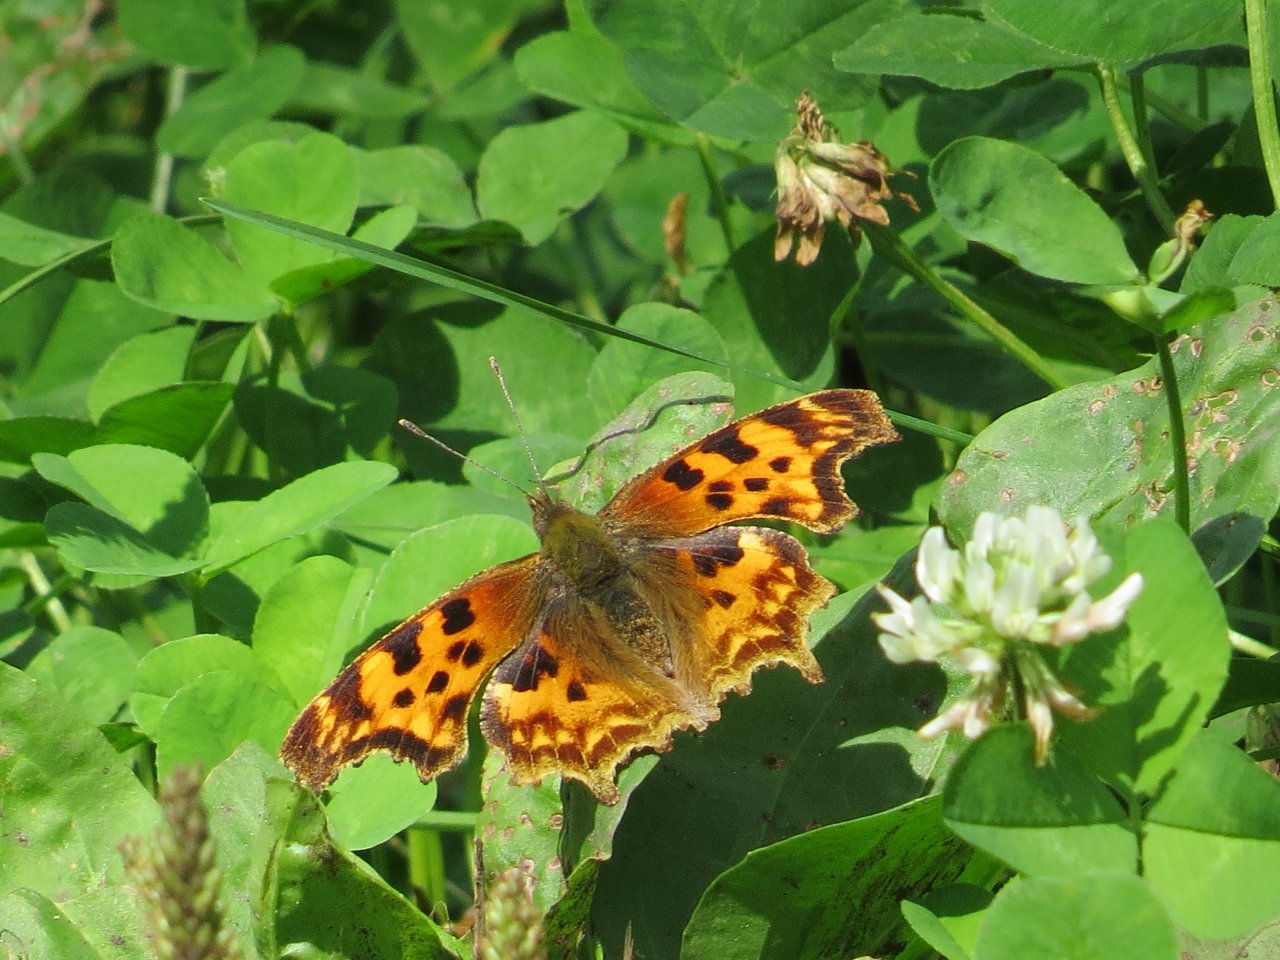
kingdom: Animalia
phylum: Arthropoda
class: Insecta
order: Lepidoptera
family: Nymphalidae
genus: Polygonia
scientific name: Polygonia satyrus
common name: Satyr Comma
